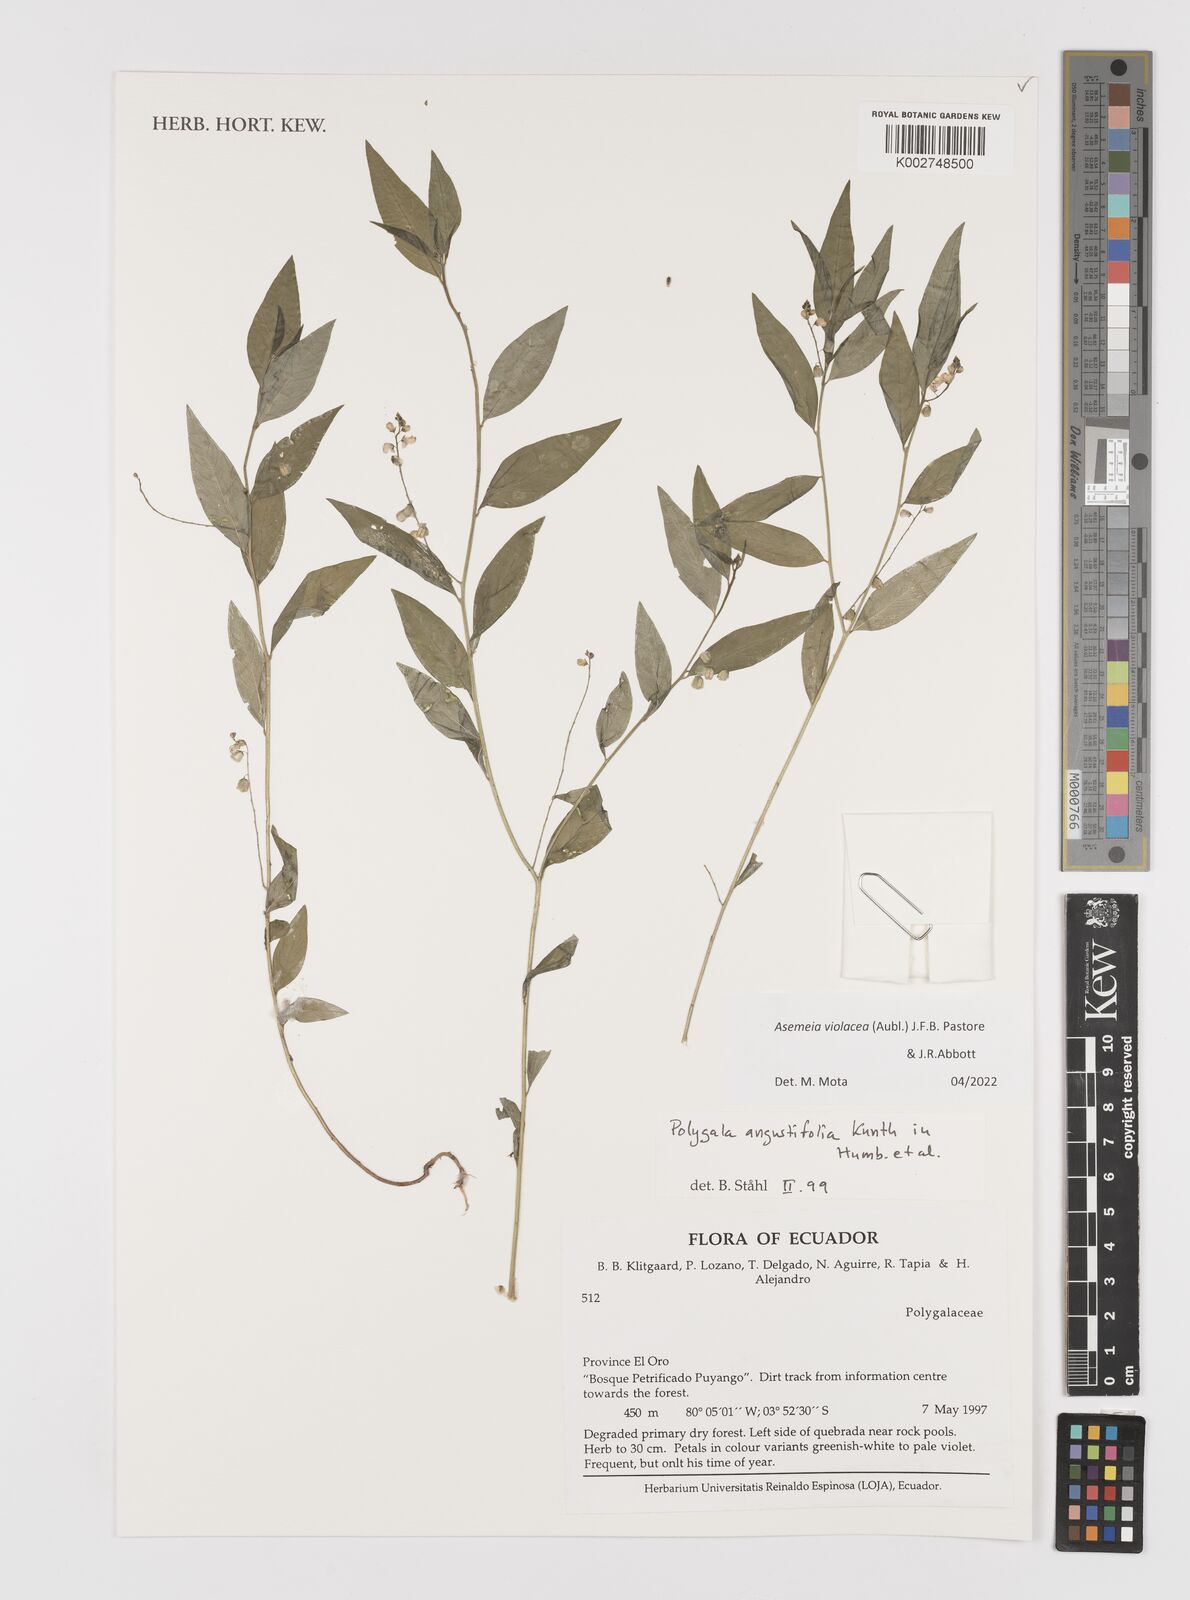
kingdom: Plantae
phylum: Tracheophyta
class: Magnoliopsida
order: Fabales
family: Polygalaceae
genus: Asemeia
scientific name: Asemeia violacea
